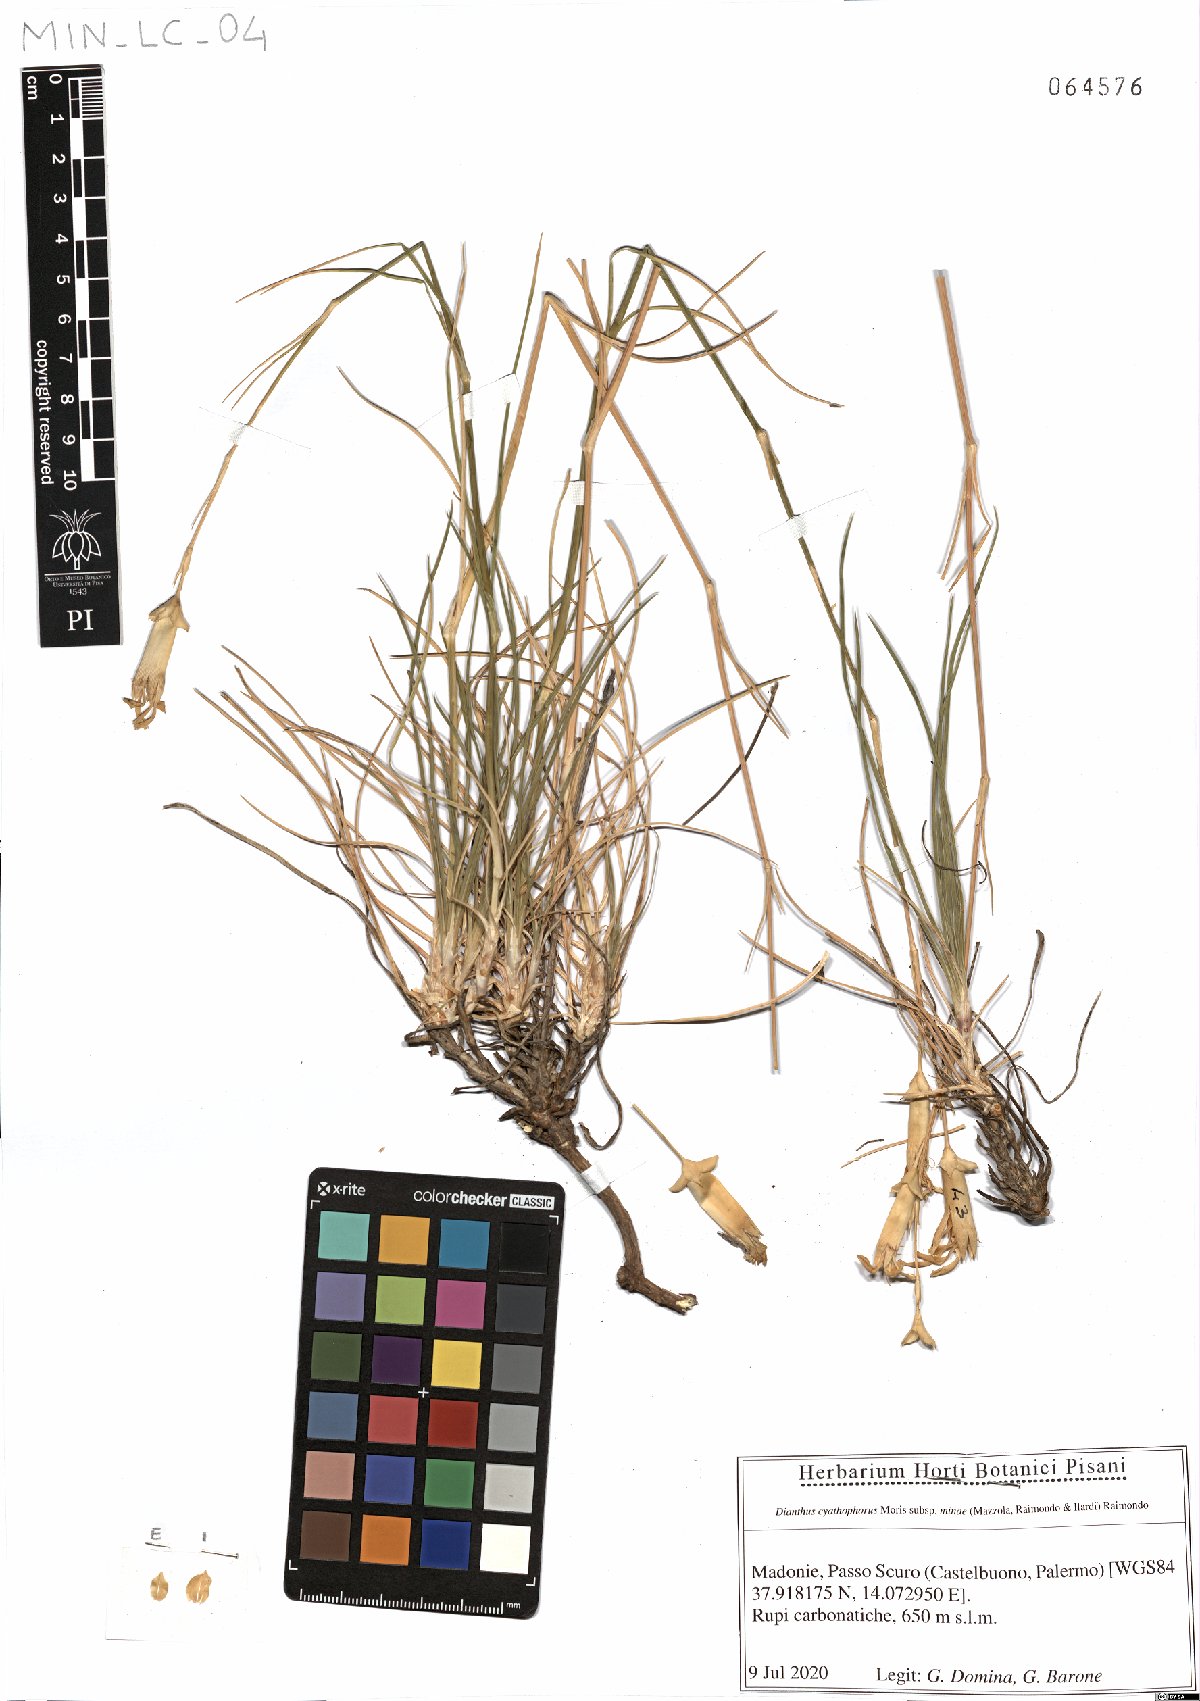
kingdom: Plantae
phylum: Tracheophyta
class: Magnoliopsida
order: Caryophyllales
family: Caryophyllaceae
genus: Dianthus
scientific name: Dianthus siculus
